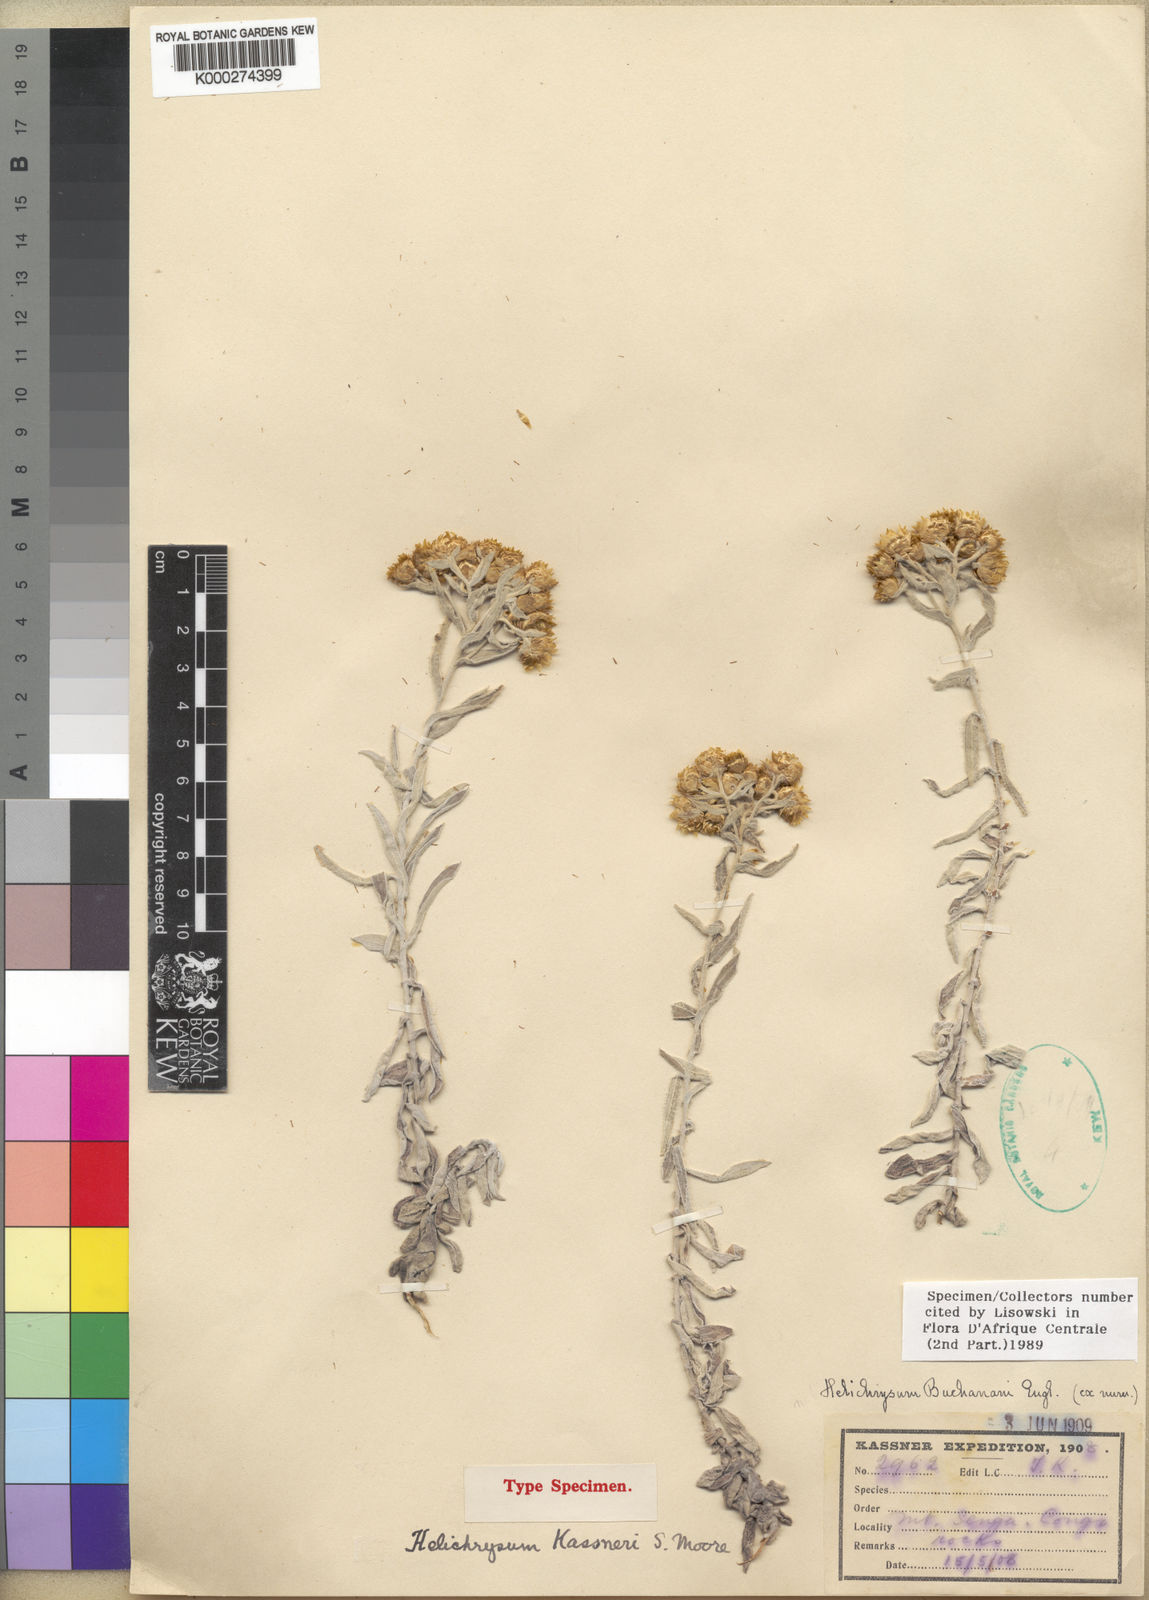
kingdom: Plantae
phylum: Tracheophyta
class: Magnoliopsida
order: Asterales
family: Asteraceae
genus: Helichrysum
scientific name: Helichrysum buchananii
